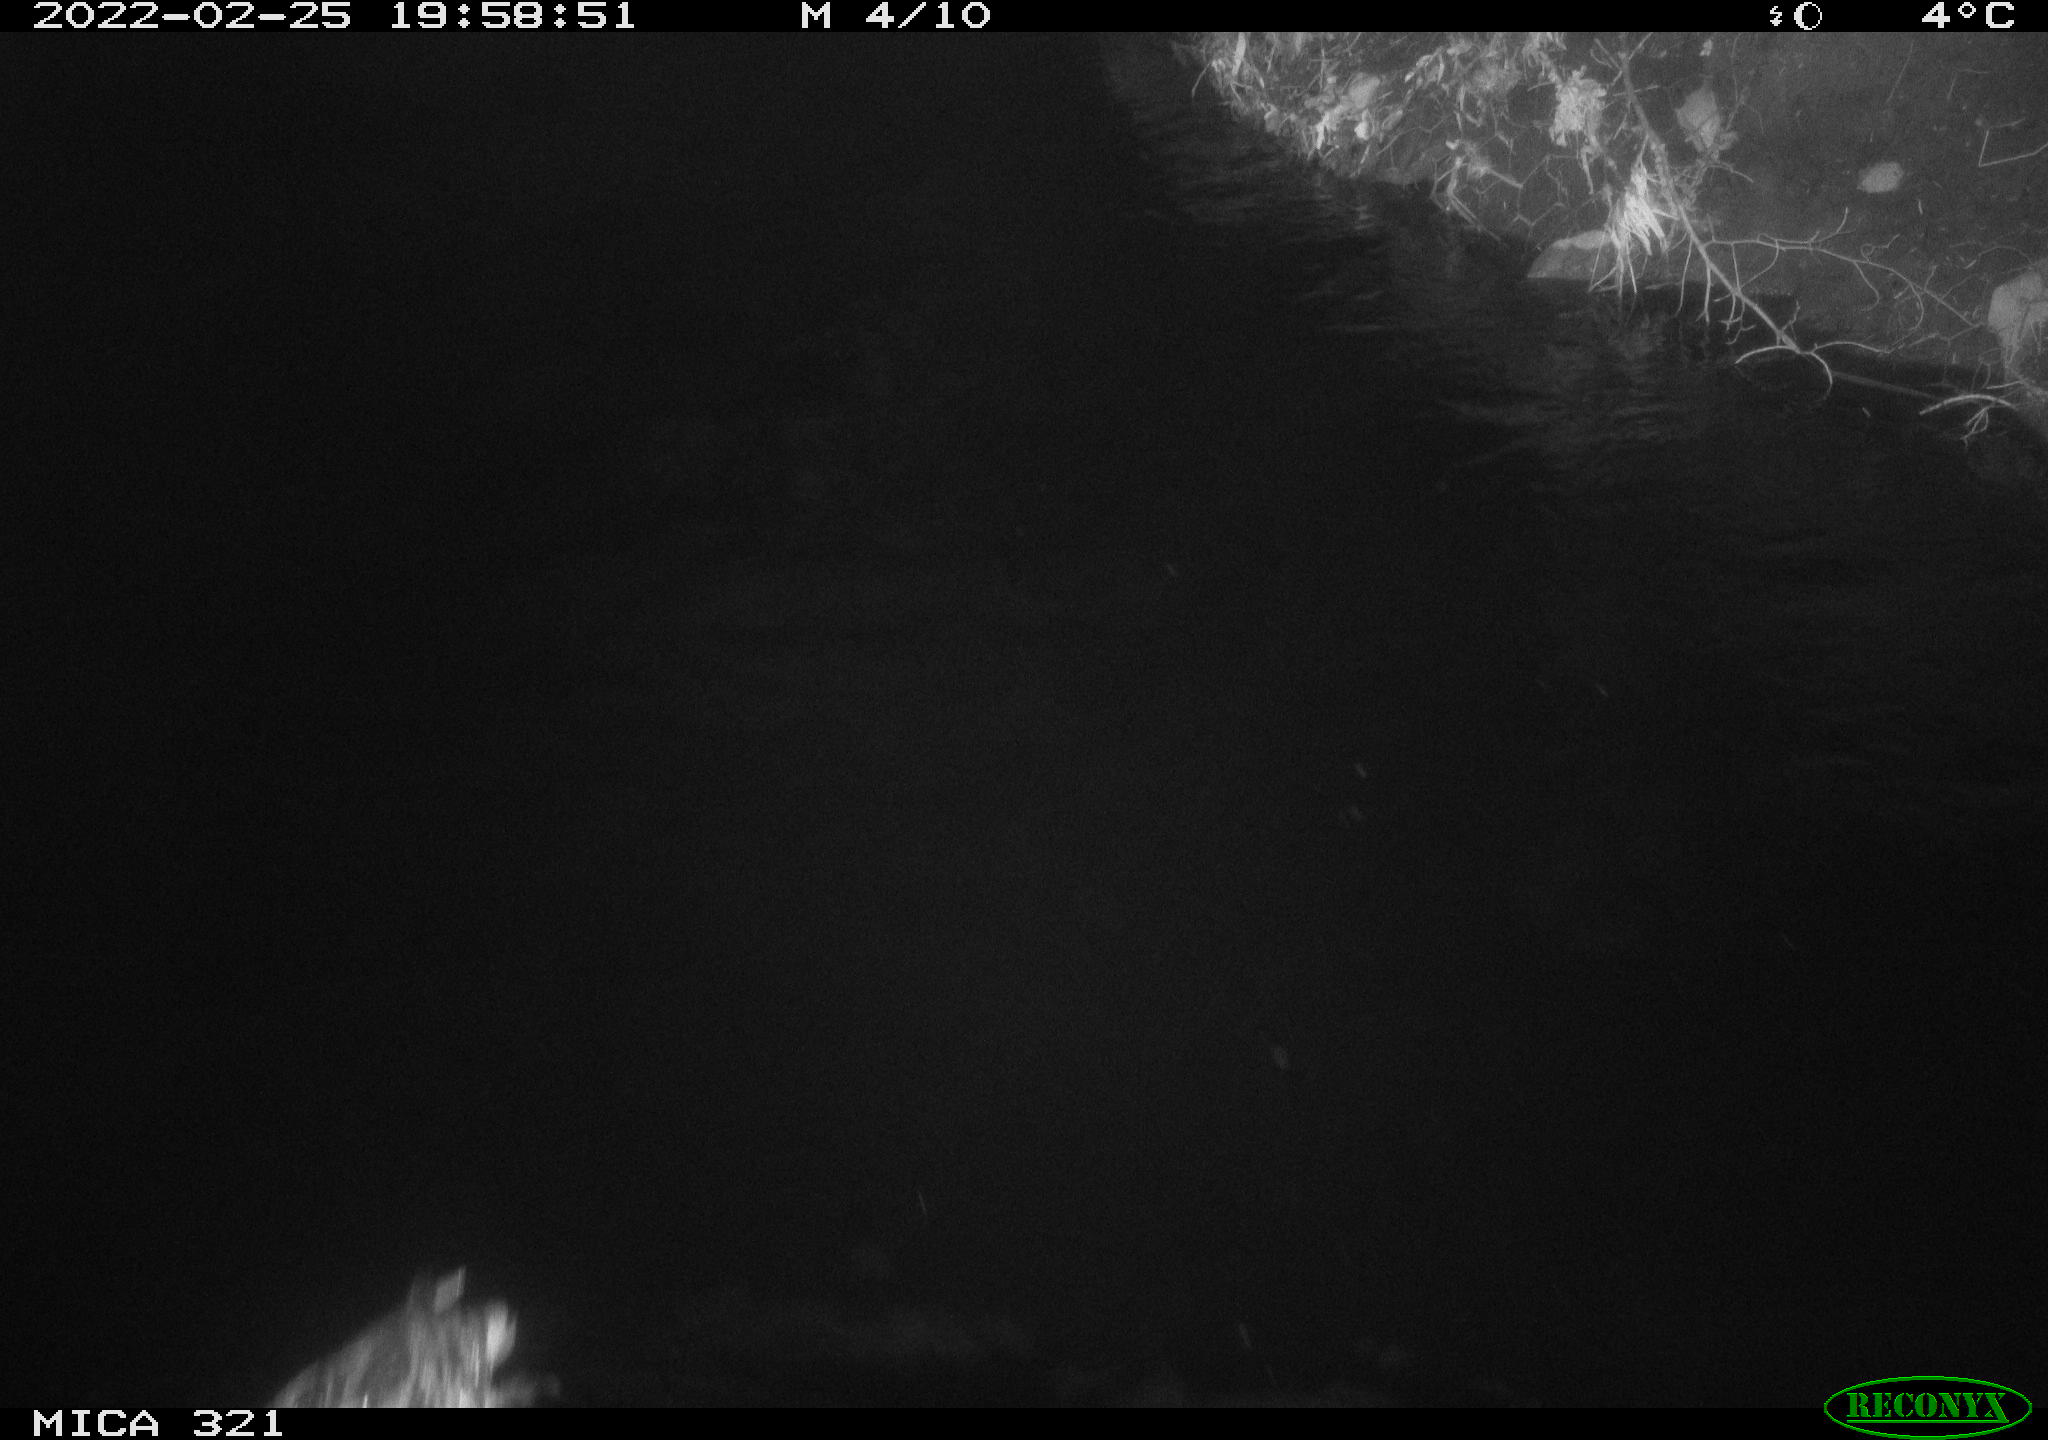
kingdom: Animalia
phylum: Chordata
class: Aves
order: Anseriformes
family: Anatidae
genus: Anas
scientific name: Anas platyrhynchos
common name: Mallard
